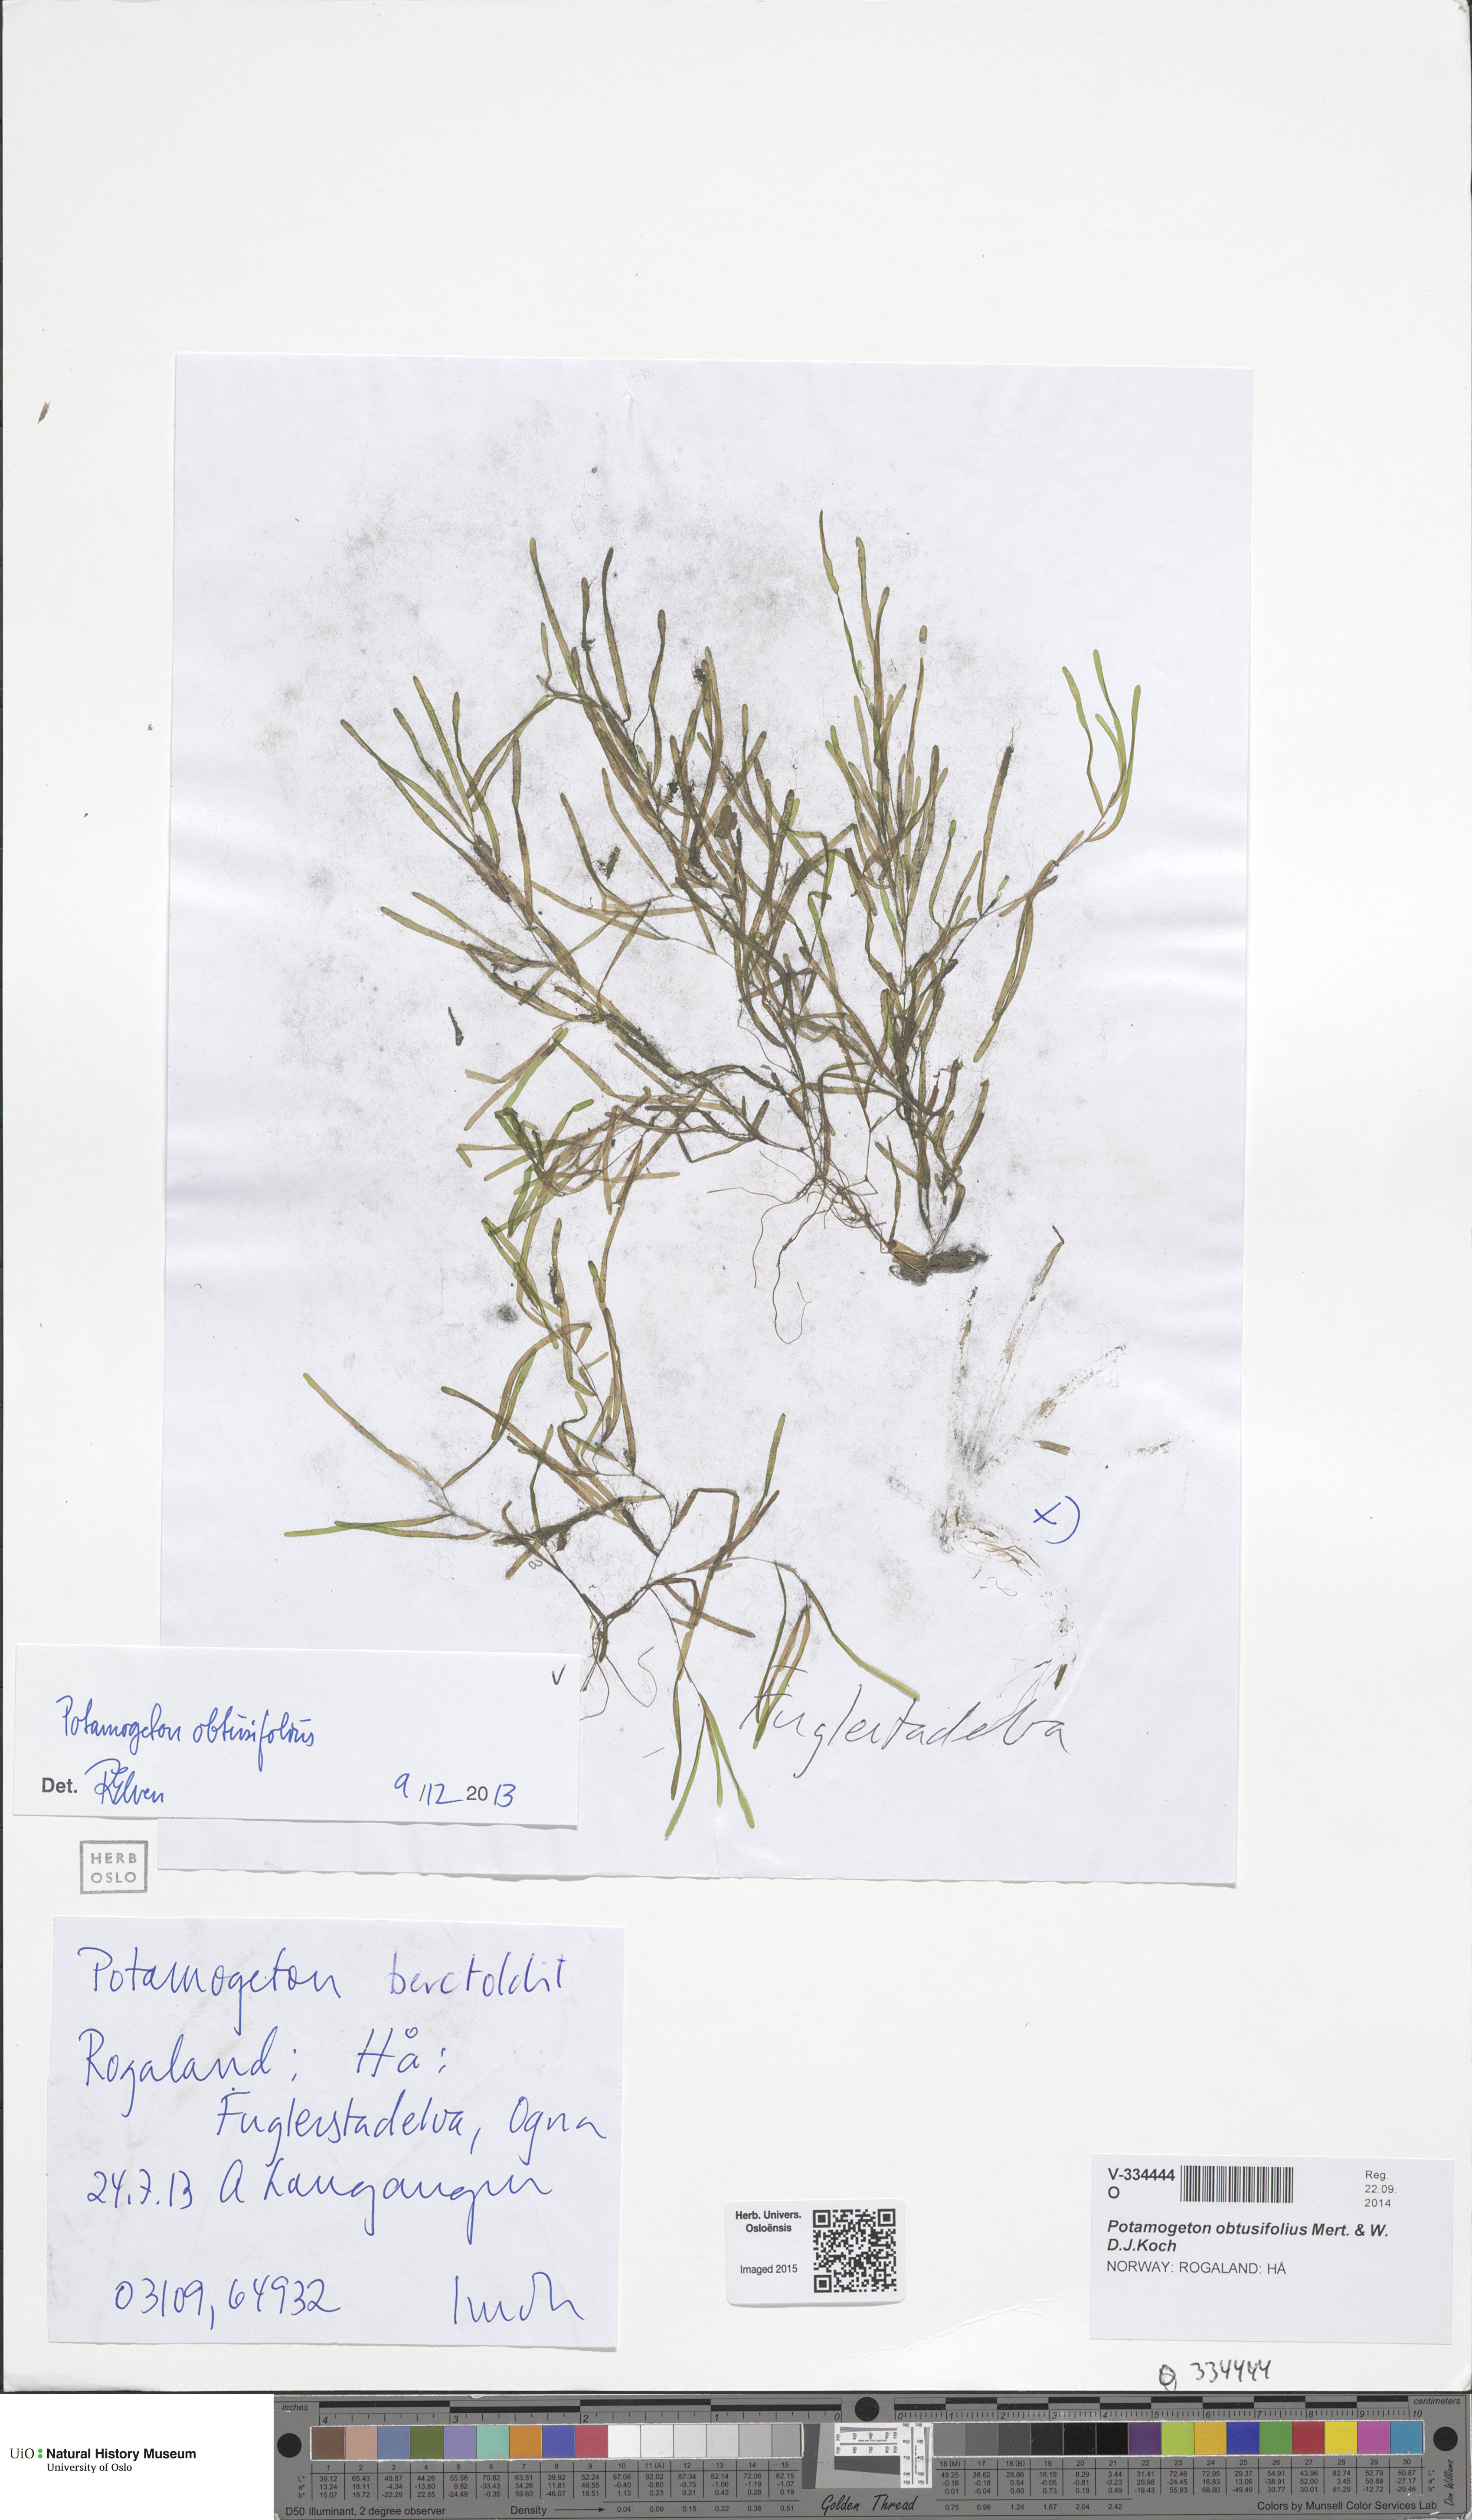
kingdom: Plantae
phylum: Tracheophyta
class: Liliopsida
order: Alismatales
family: Potamogetonaceae
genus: Potamogeton
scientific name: Potamogeton berchtoldii
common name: Small pondweed
